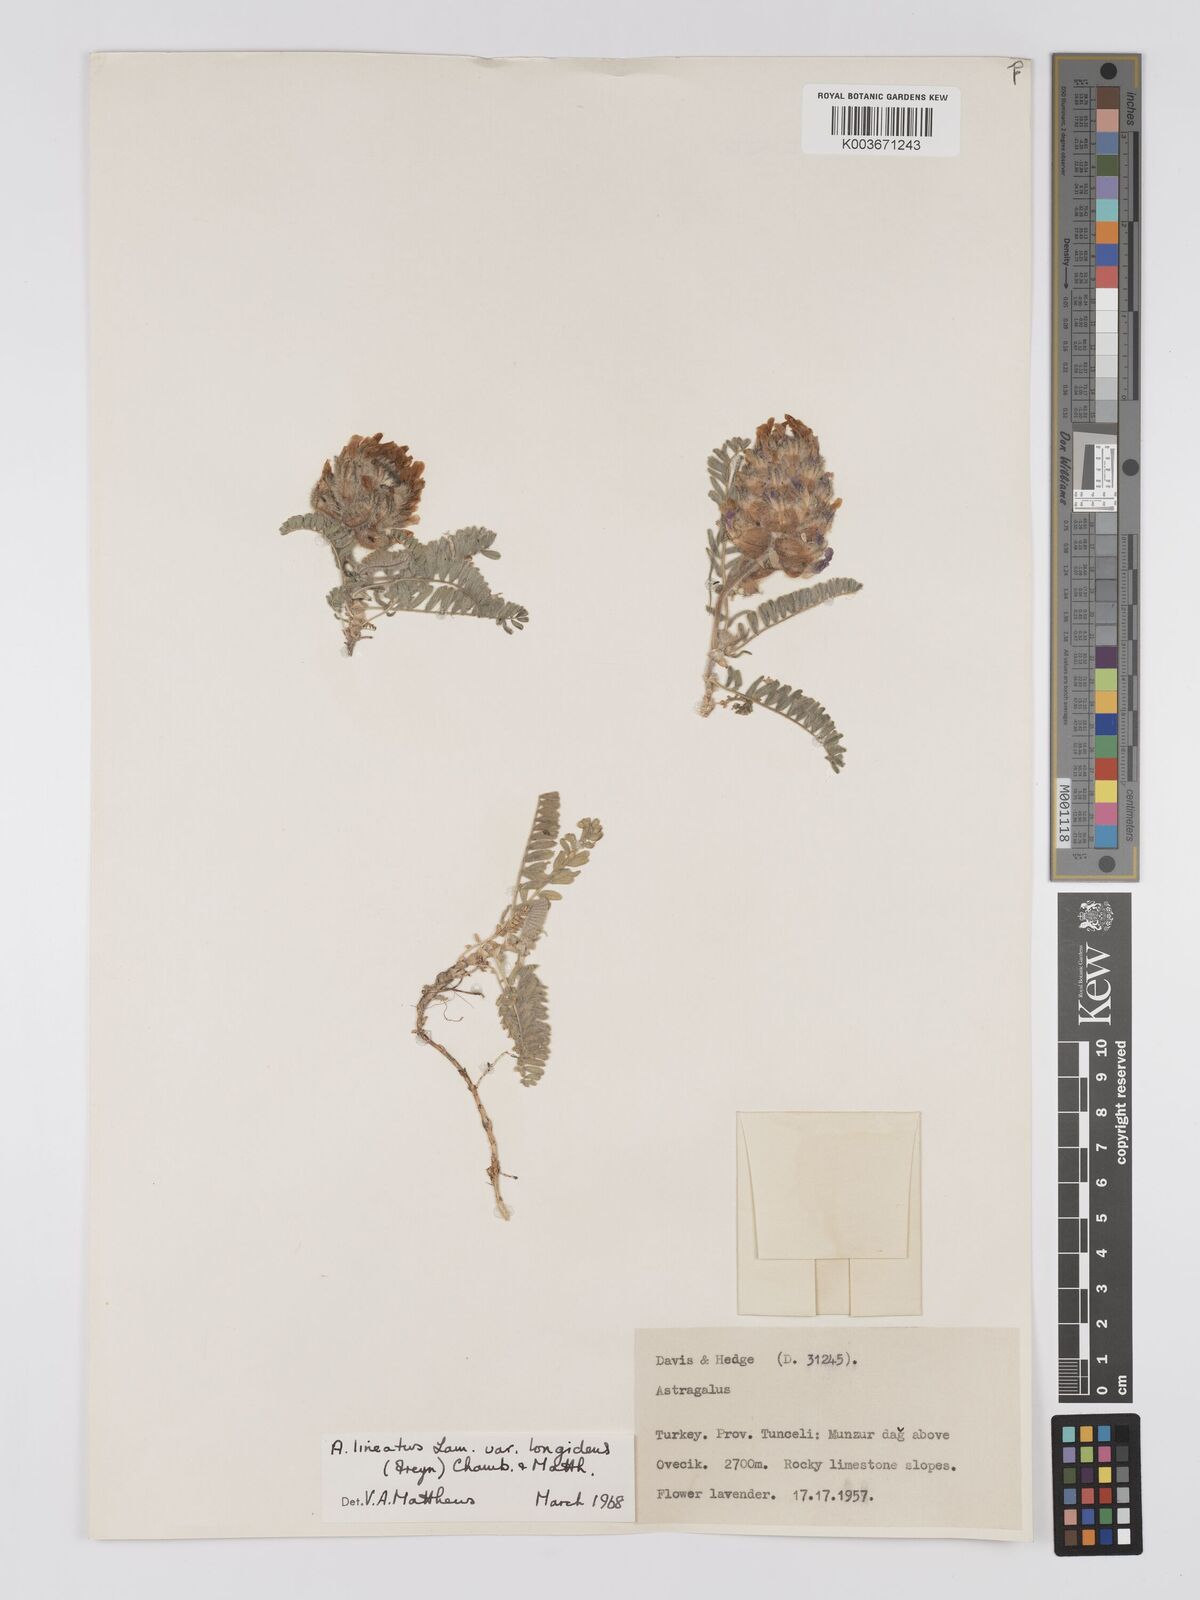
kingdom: Plantae
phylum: Tracheophyta
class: Magnoliopsida
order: Fabales
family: Fabaceae
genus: Astragalus
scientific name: Astragalus lineatus
